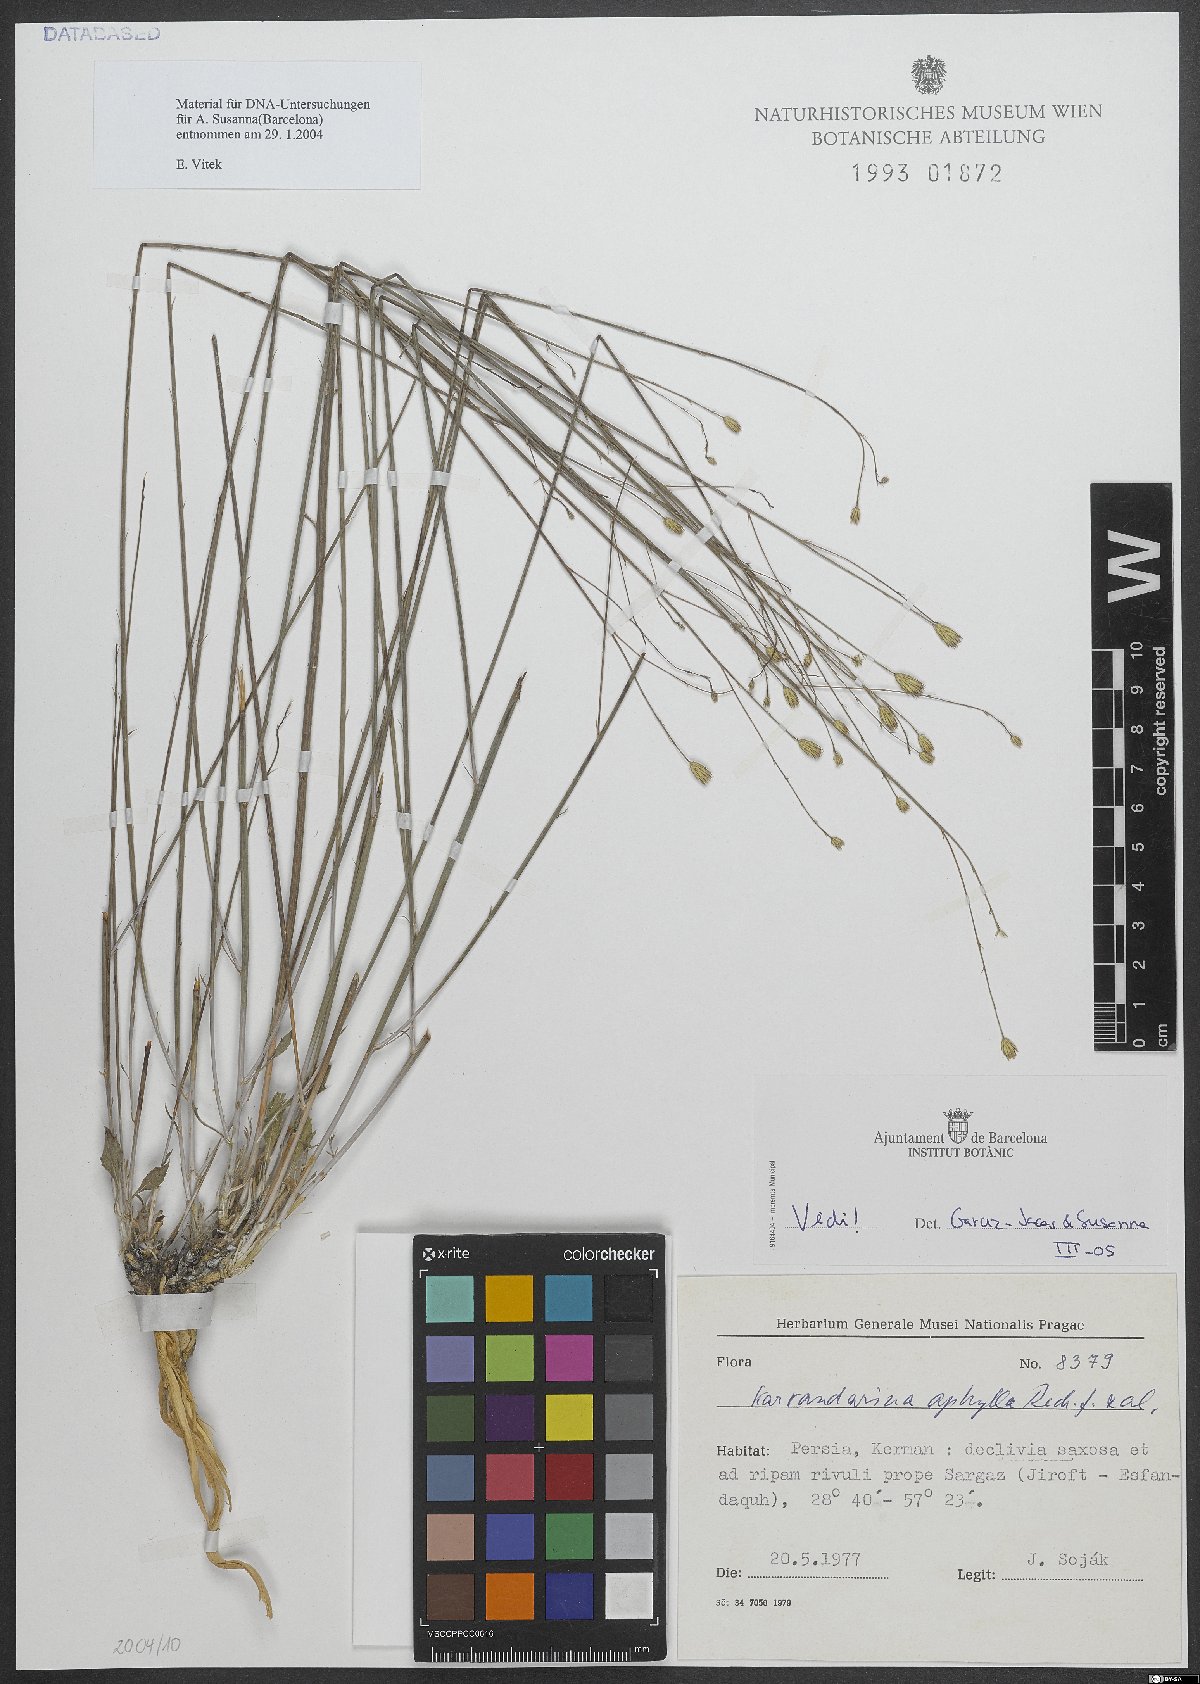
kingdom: Plantae
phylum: Tracheophyta
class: Magnoliopsida
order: Asterales
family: Asteraceae
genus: Karvandarina
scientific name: Karvandarina aphylla
